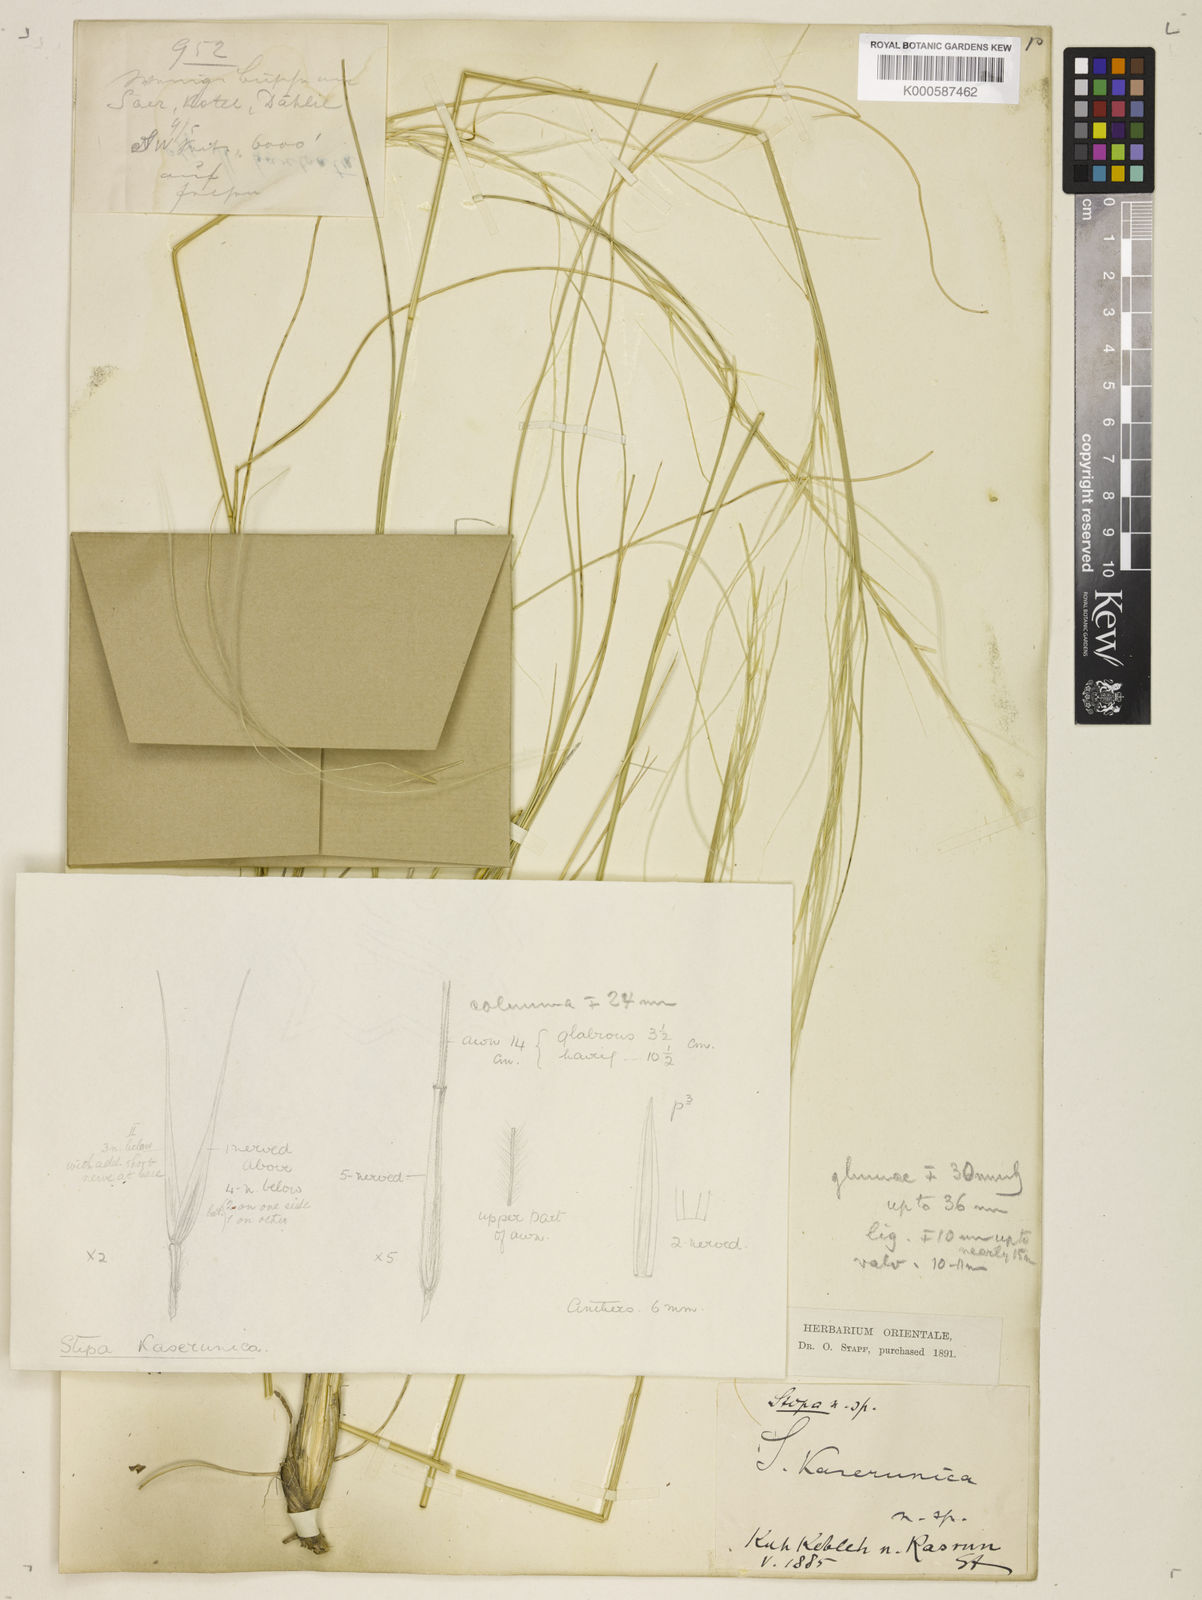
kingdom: Plantae
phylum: Tracheophyta
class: Liliopsida
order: Poales
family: Poaceae
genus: Stipa
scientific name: Stipa hohenackeriana
